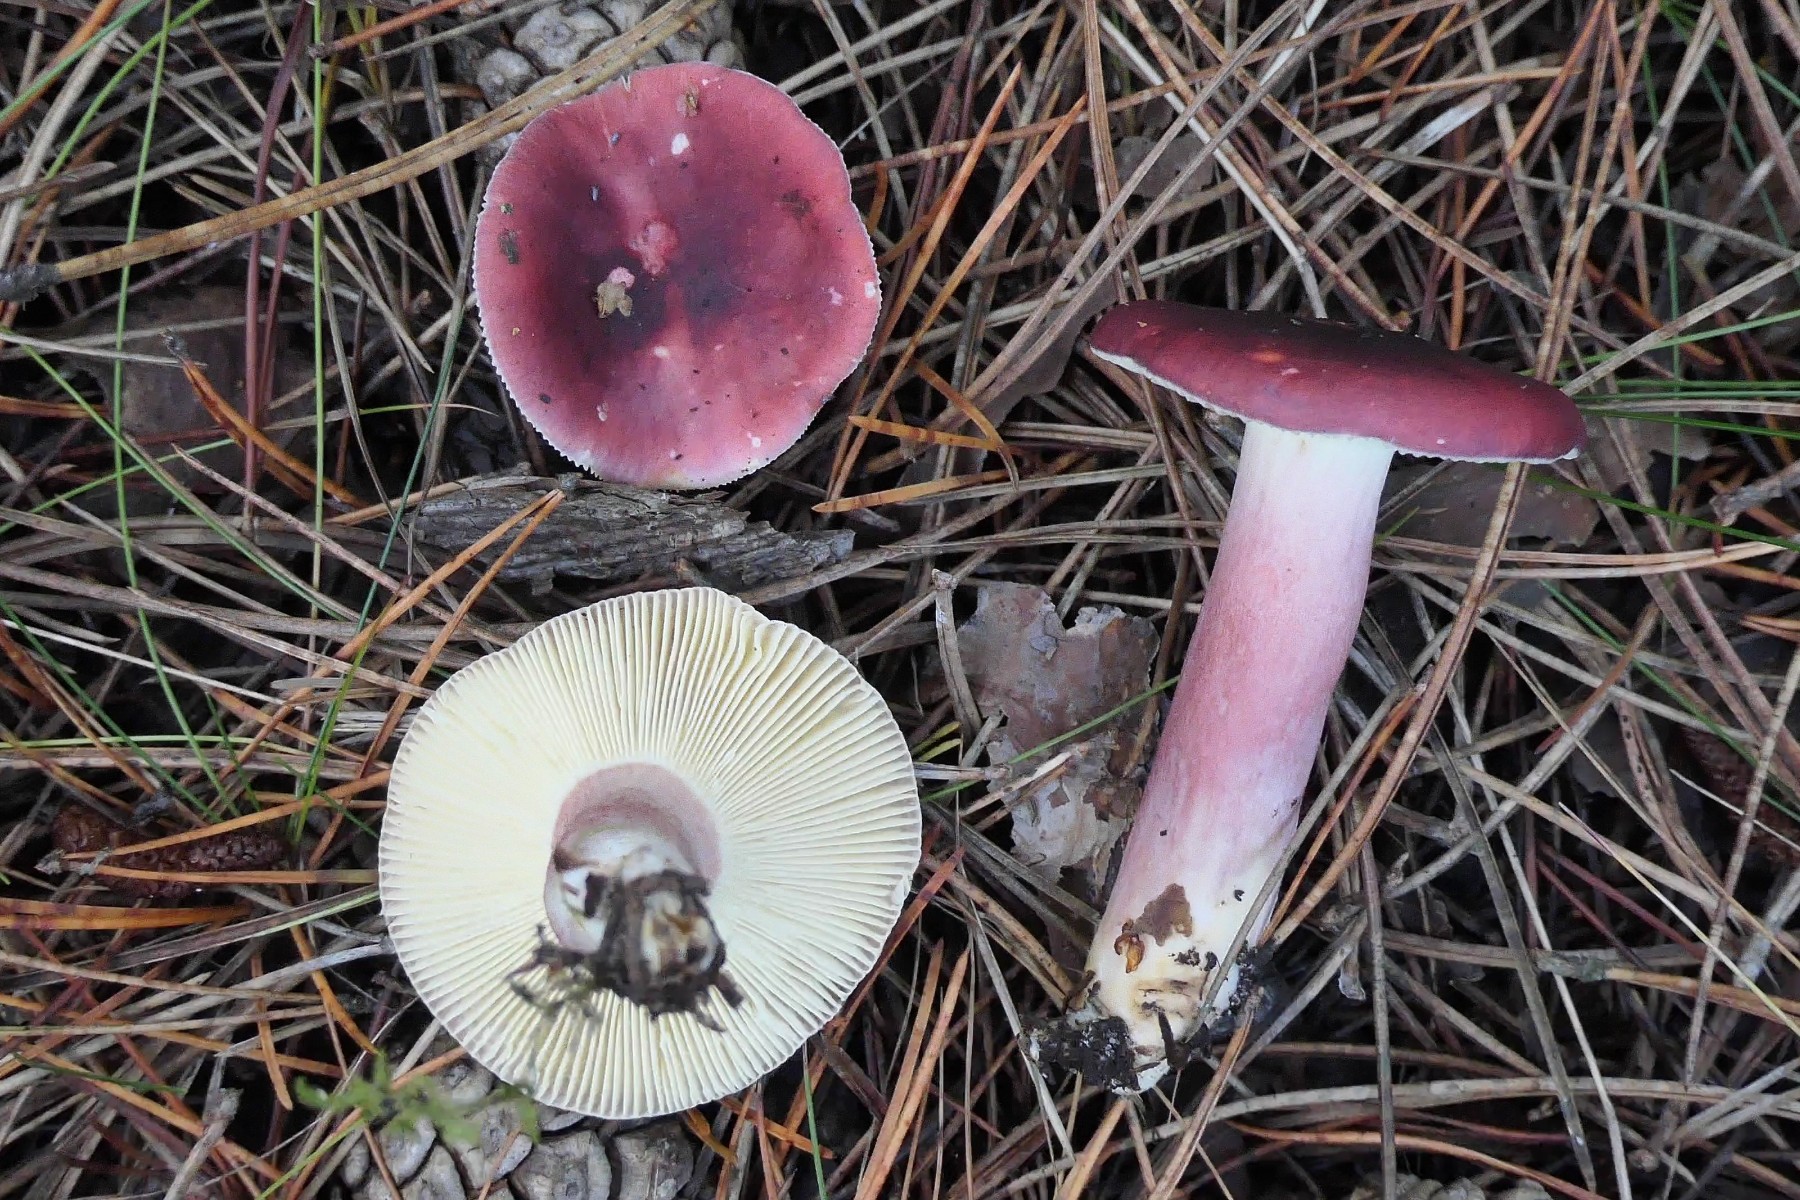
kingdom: Fungi
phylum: Basidiomycota
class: Agaricomycetes
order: Russulales
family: Russulaceae
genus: Russula
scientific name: Russula sardonia
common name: citronbladet skørhat
